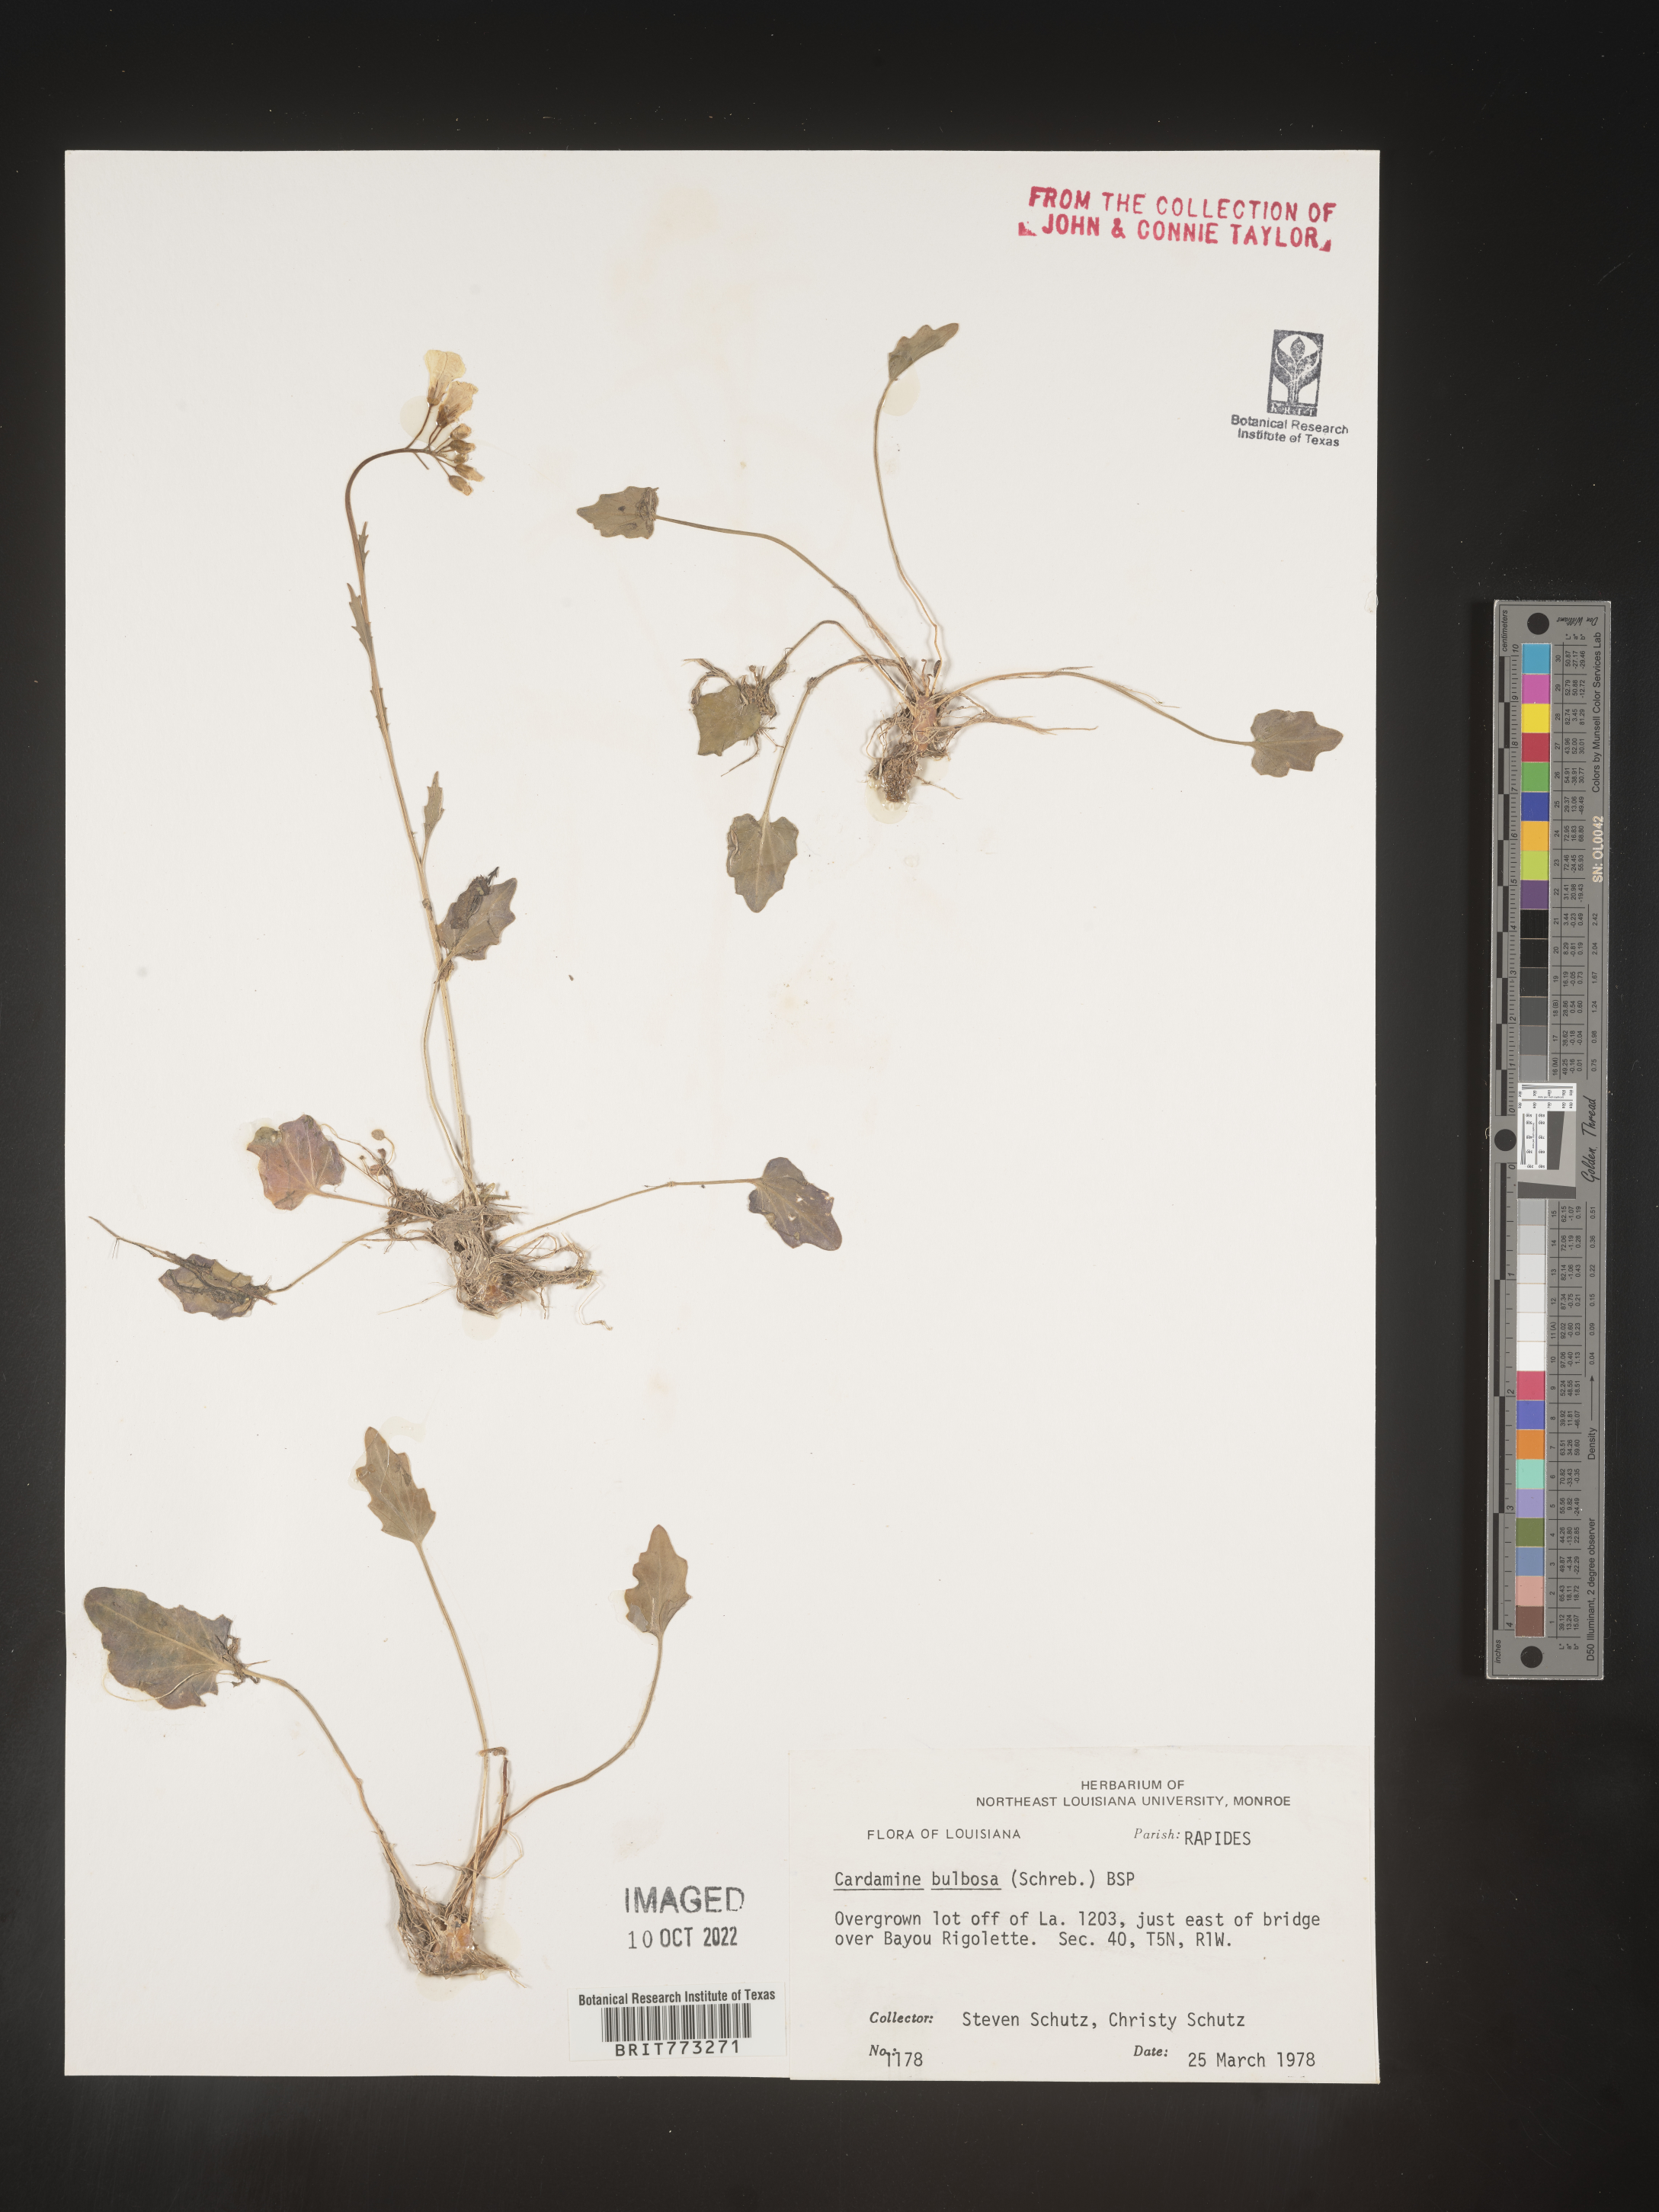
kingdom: Plantae
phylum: Tracheophyta
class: Magnoliopsida
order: Brassicales
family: Brassicaceae
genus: Cardamine
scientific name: Cardamine bulbosa
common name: Spring cress
